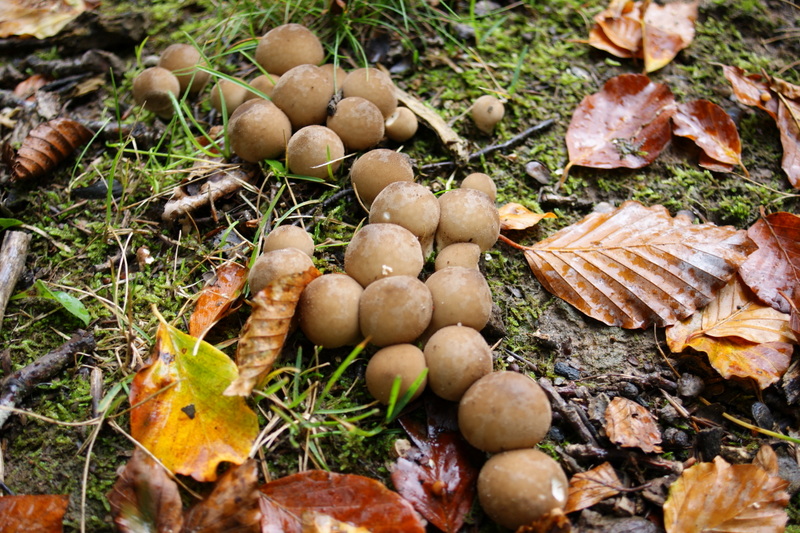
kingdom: Fungi
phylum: Basidiomycota
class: Agaricomycetes
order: Agaricales
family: Lycoperdaceae
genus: Apioperdon
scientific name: Apioperdon pyriforme
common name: pære-støvbold
